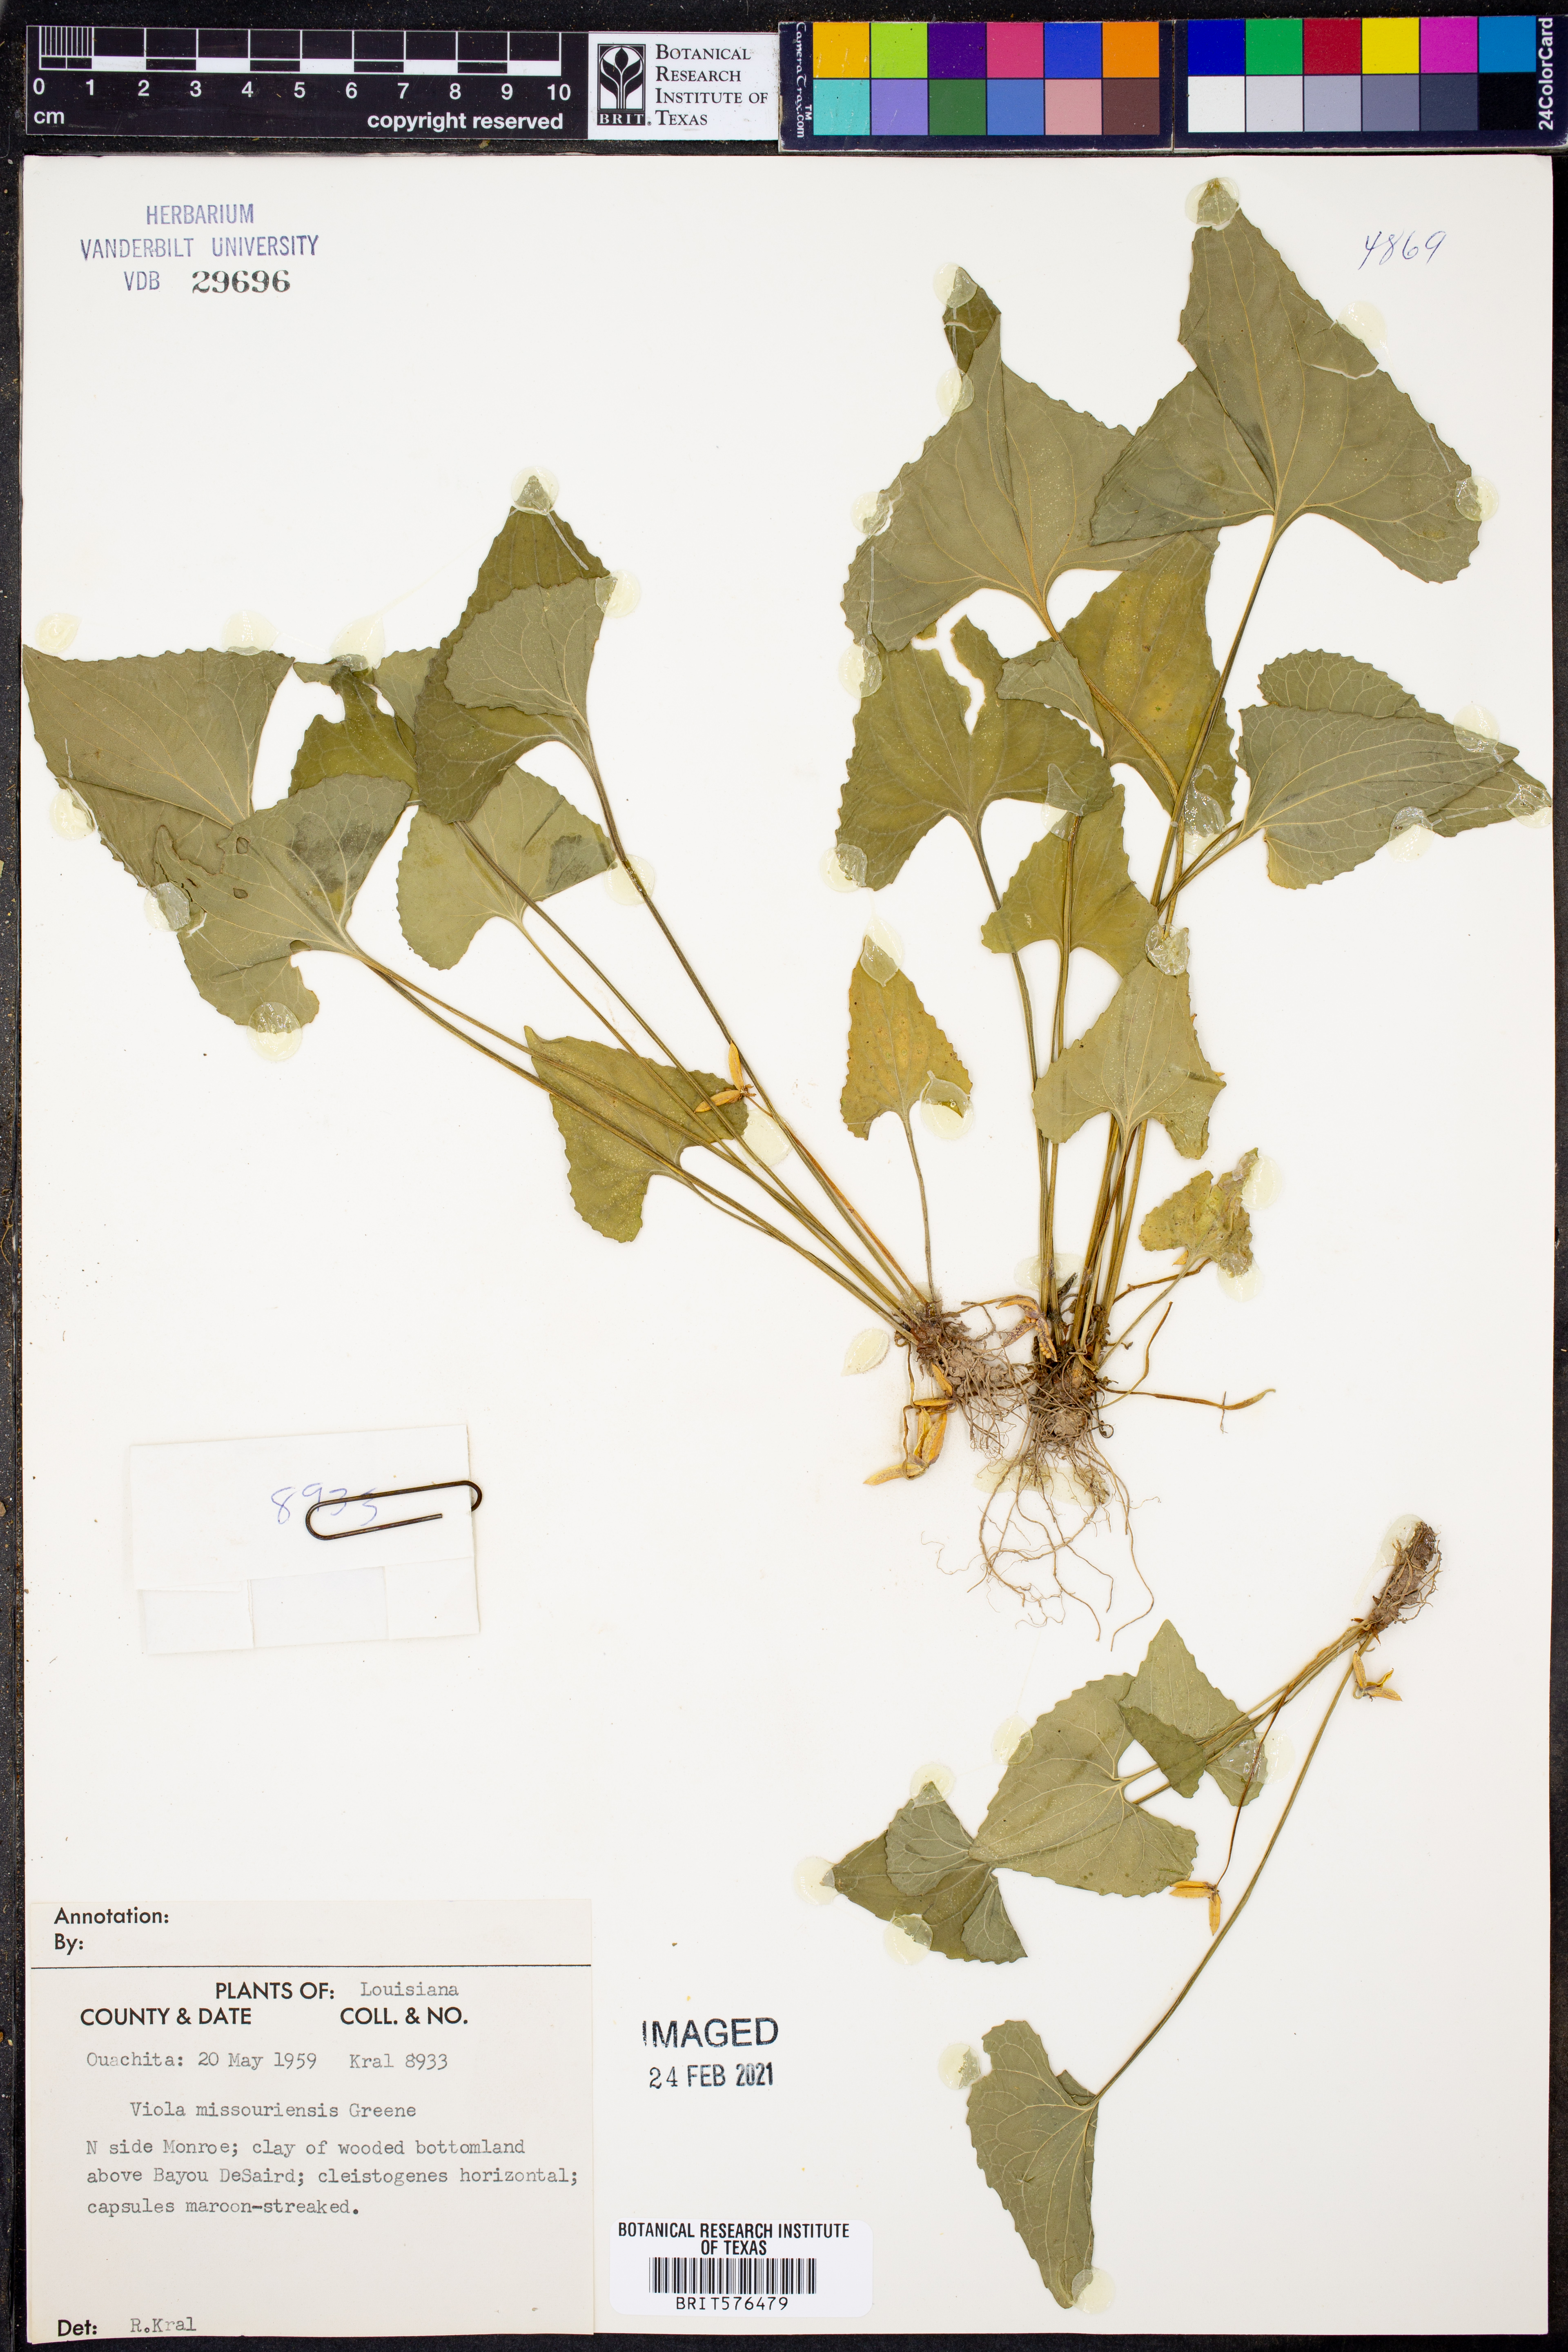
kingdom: Plantae
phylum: Tracheophyta
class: Magnoliopsida
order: Malpighiales
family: Violaceae
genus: Viola
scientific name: Viola missouriensis
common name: Missouri violet
